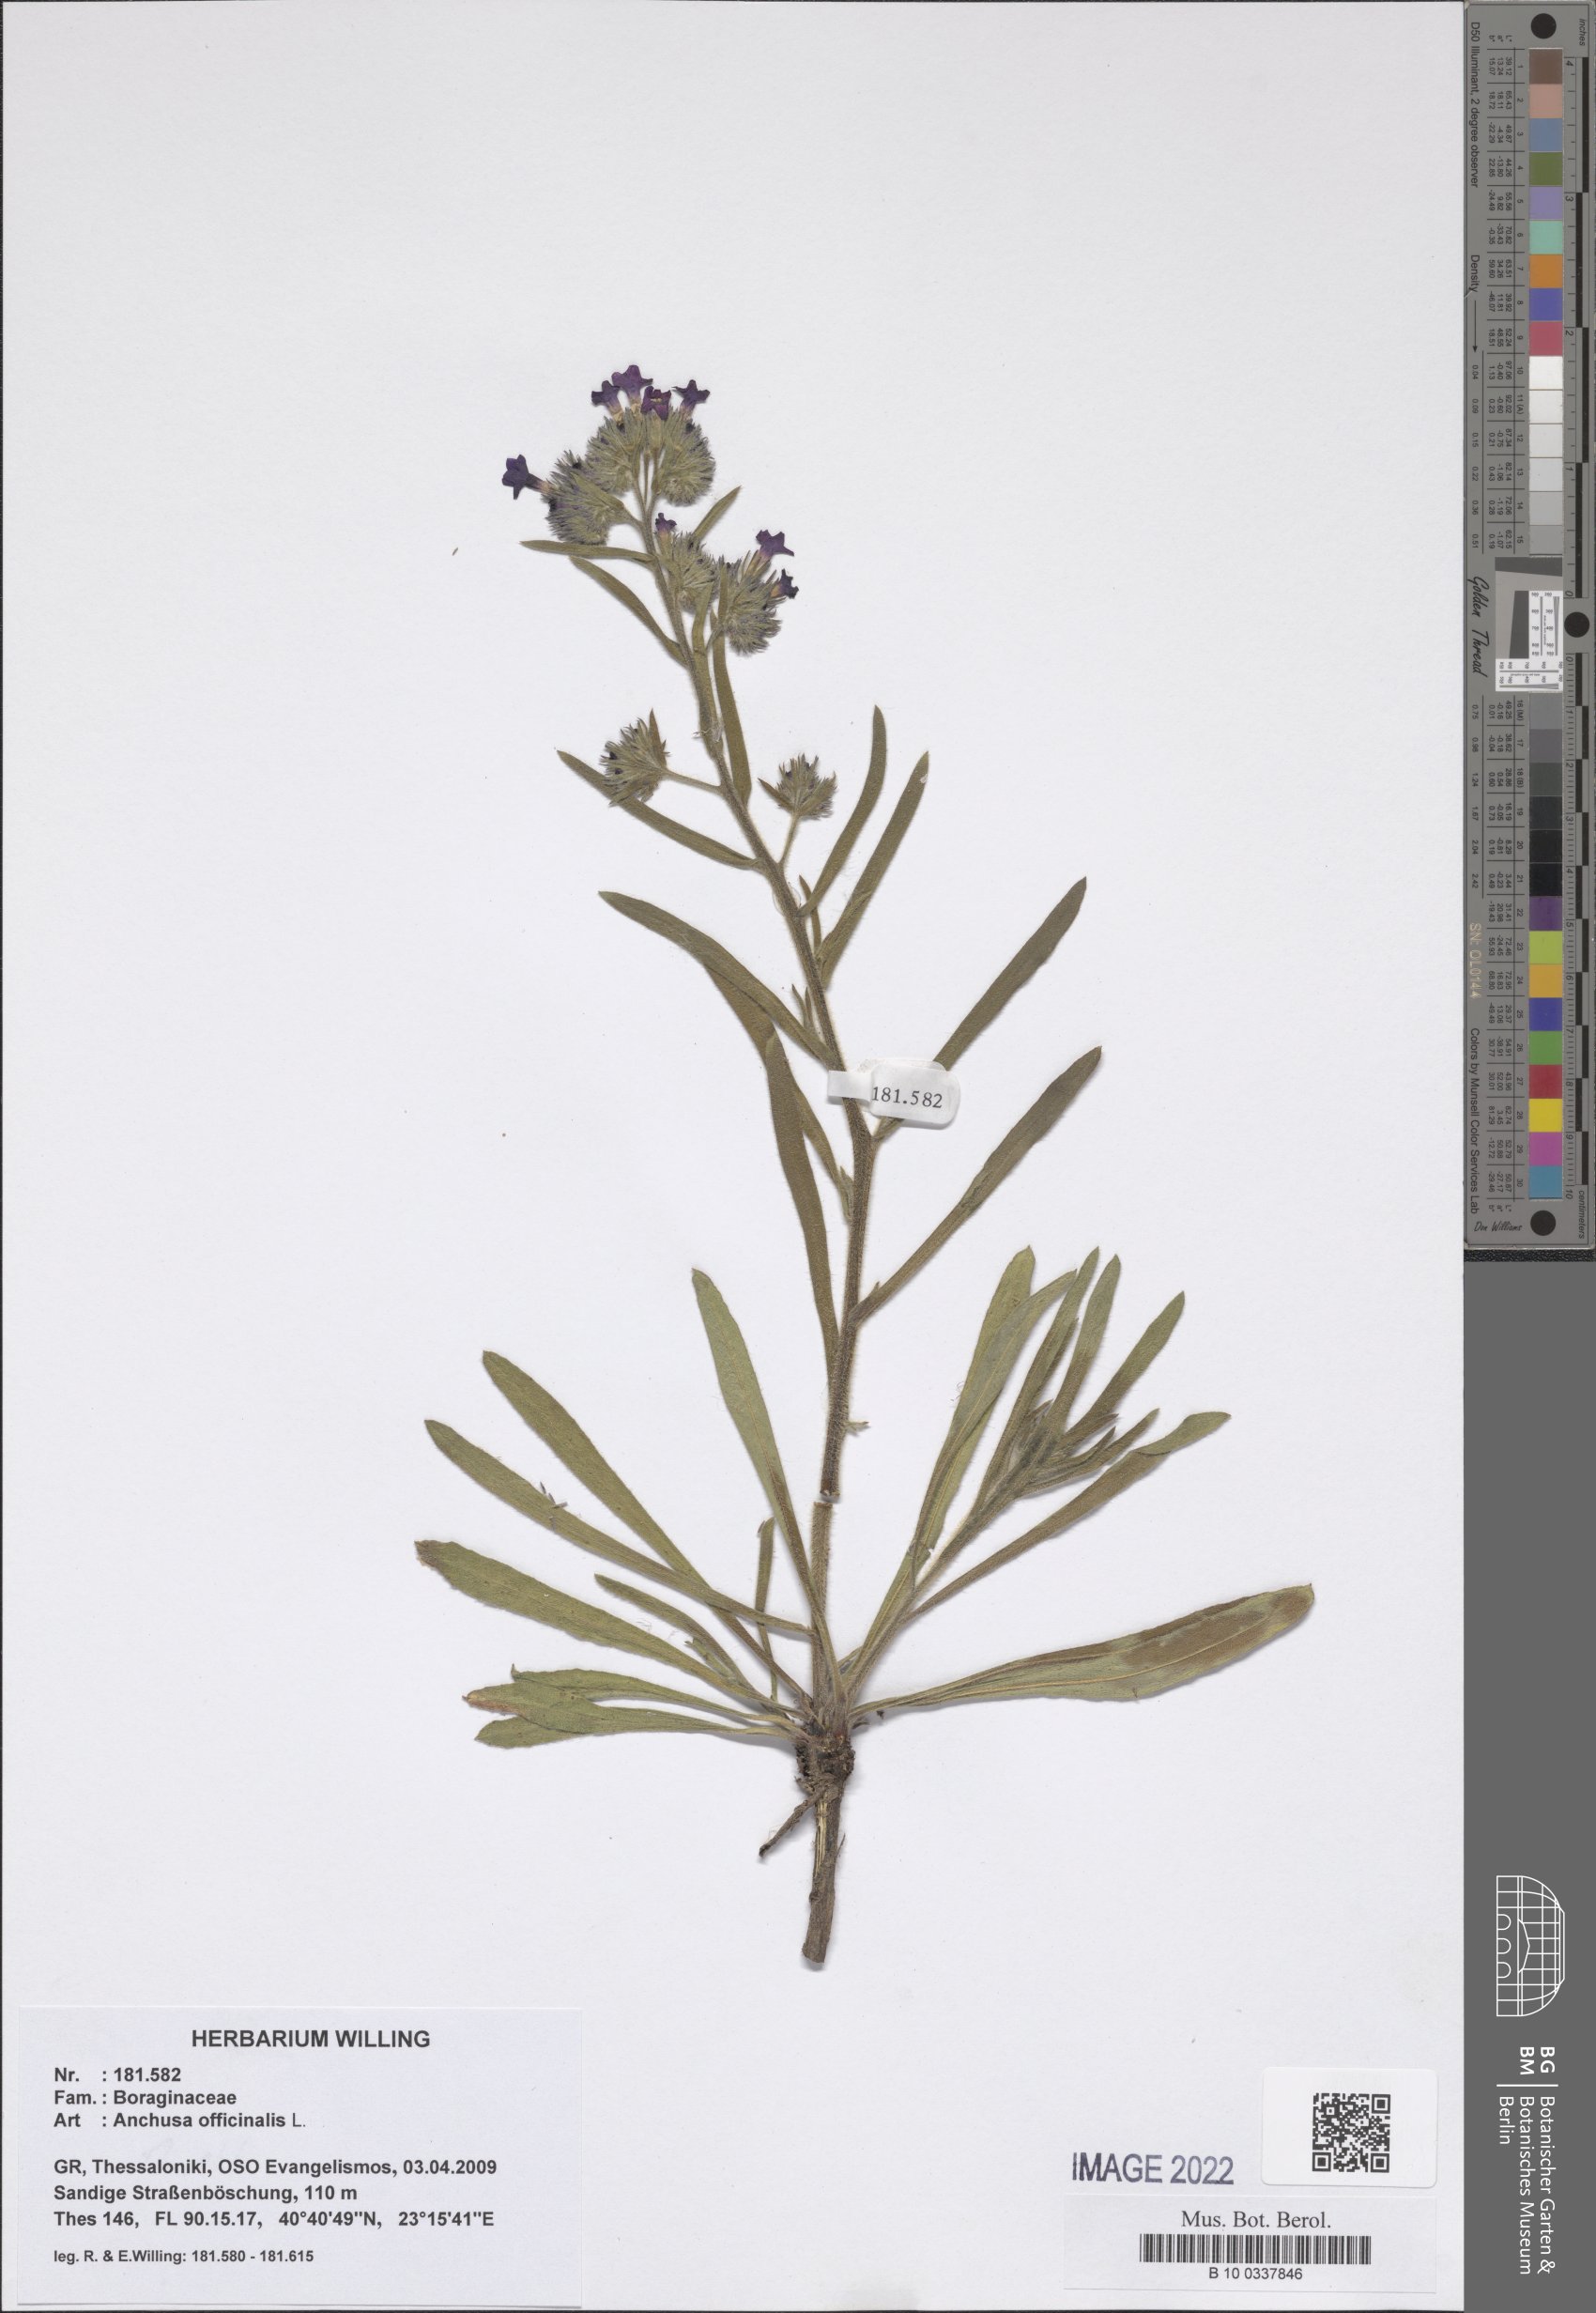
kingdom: Plantae
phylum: Tracheophyta
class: Magnoliopsida
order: Boraginales
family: Boraginaceae
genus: Anchusa
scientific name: Anchusa officinalis
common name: Alkanet
